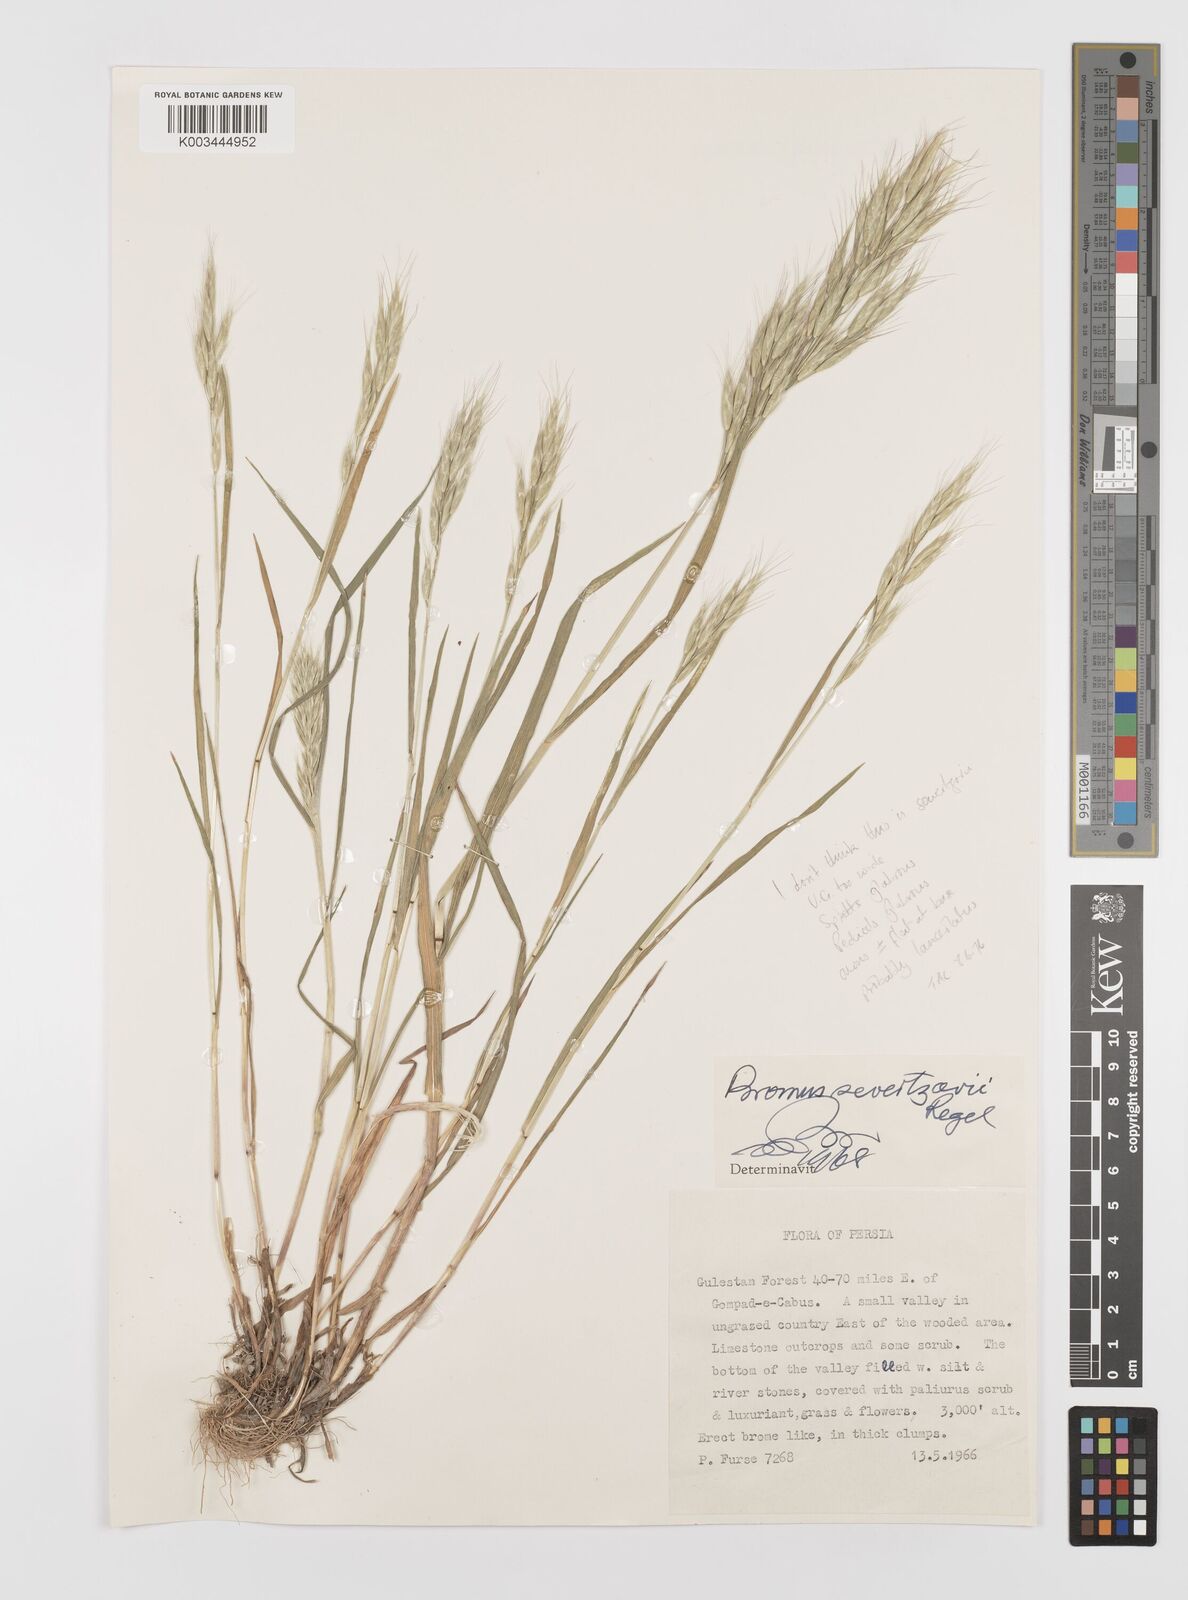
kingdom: Plantae
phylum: Tracheophyta
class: Liliopsida
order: Poales
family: Poaceae
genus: Bromus
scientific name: Bromus lanceolatus
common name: Mediterranean brome
